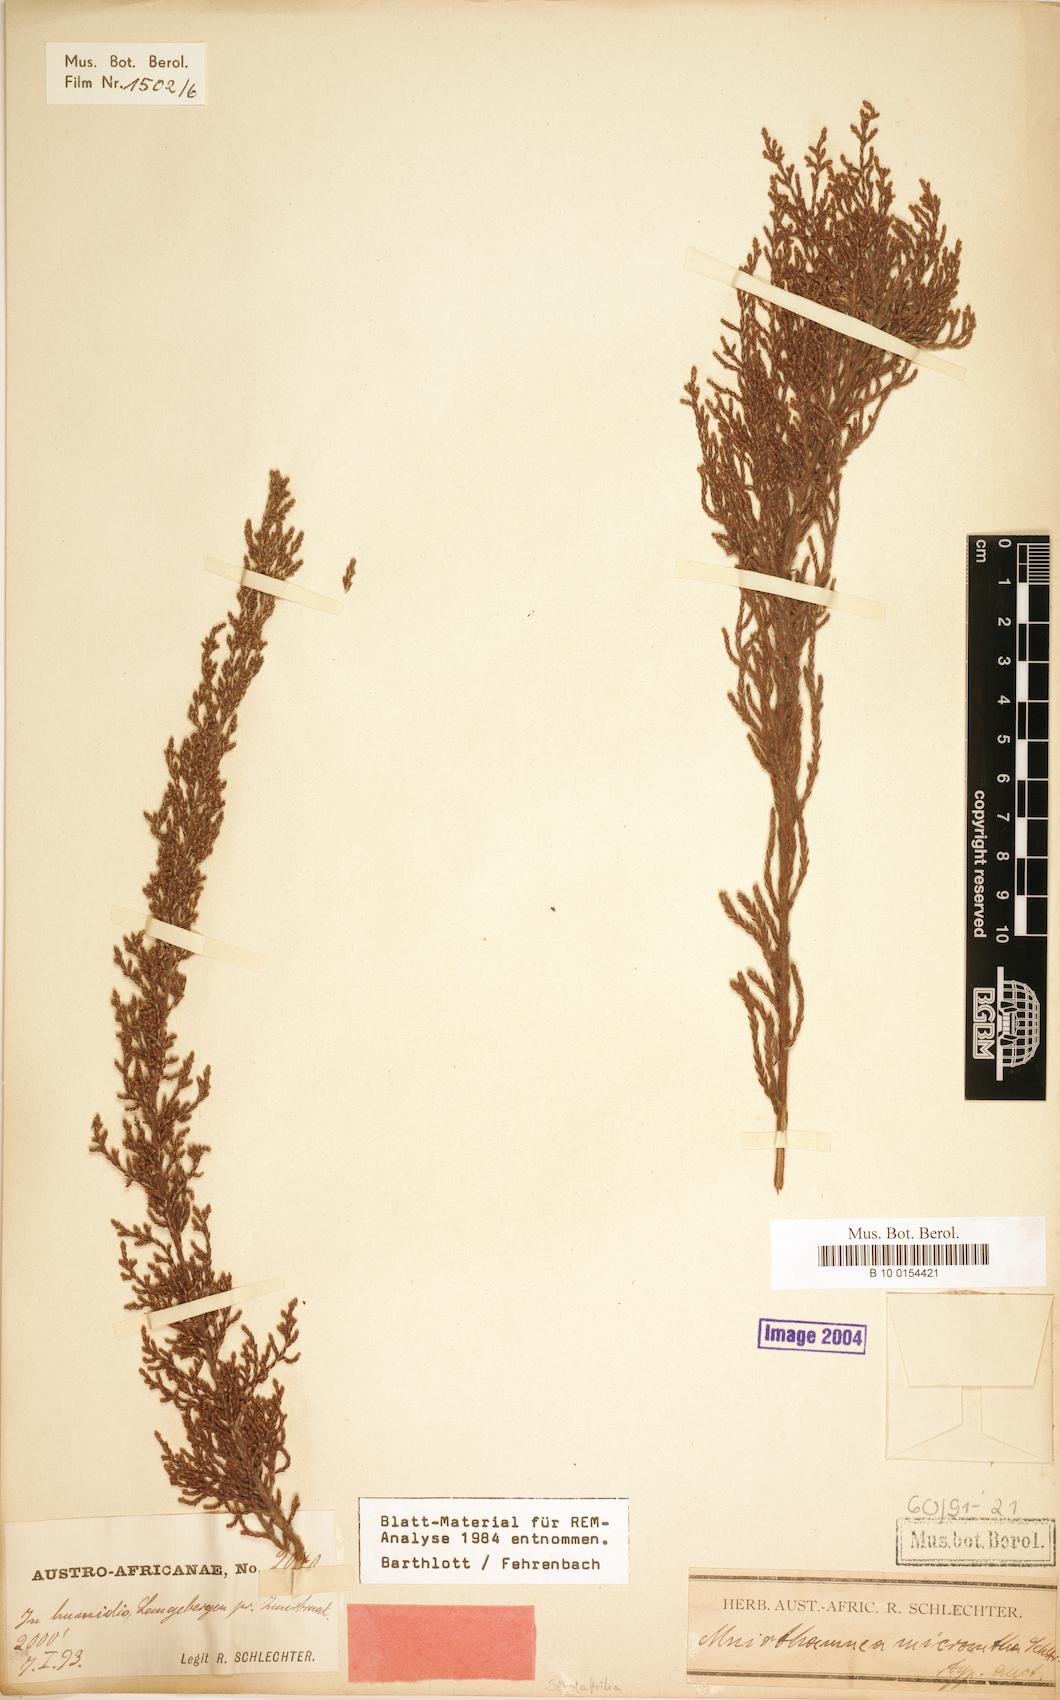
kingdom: Plantae
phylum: Tracheophyta
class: Magnoliopsida
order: Bruniales
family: Bruniaceae
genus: Brunia
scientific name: Brunia callunoides
